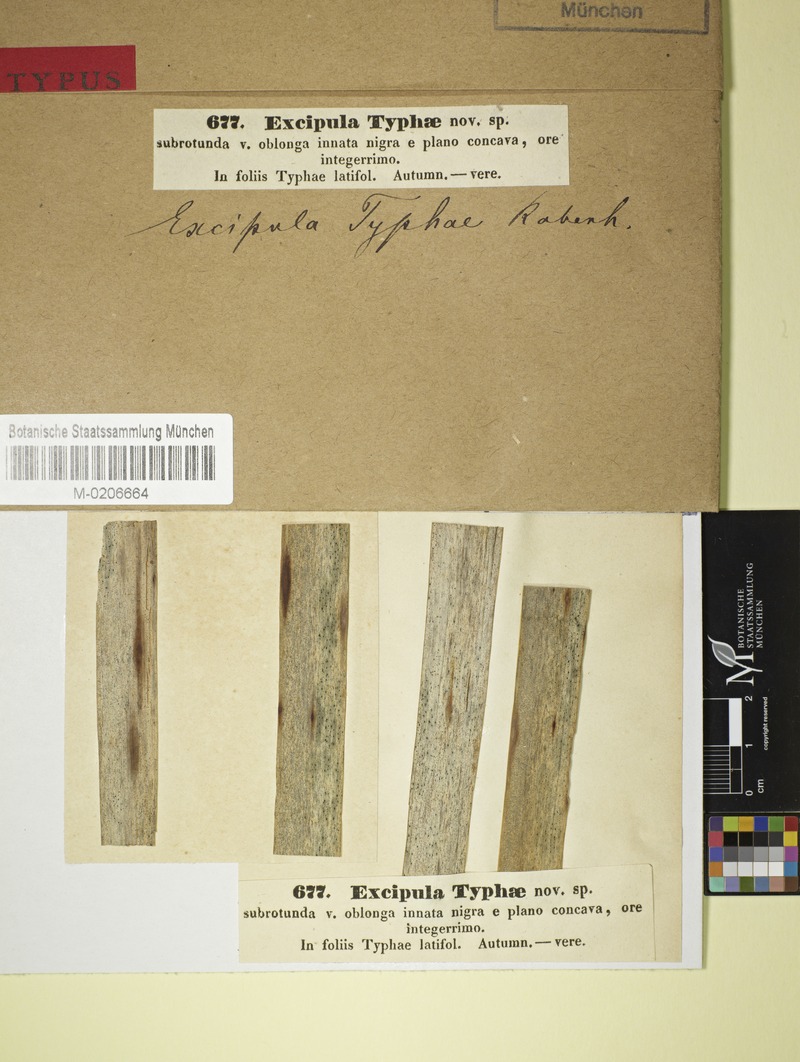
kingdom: Fungi
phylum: Ascomycota
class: Leotiomycetes
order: Helotiales
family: Ploettnerulaceae
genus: Excipula
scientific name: Excipula
